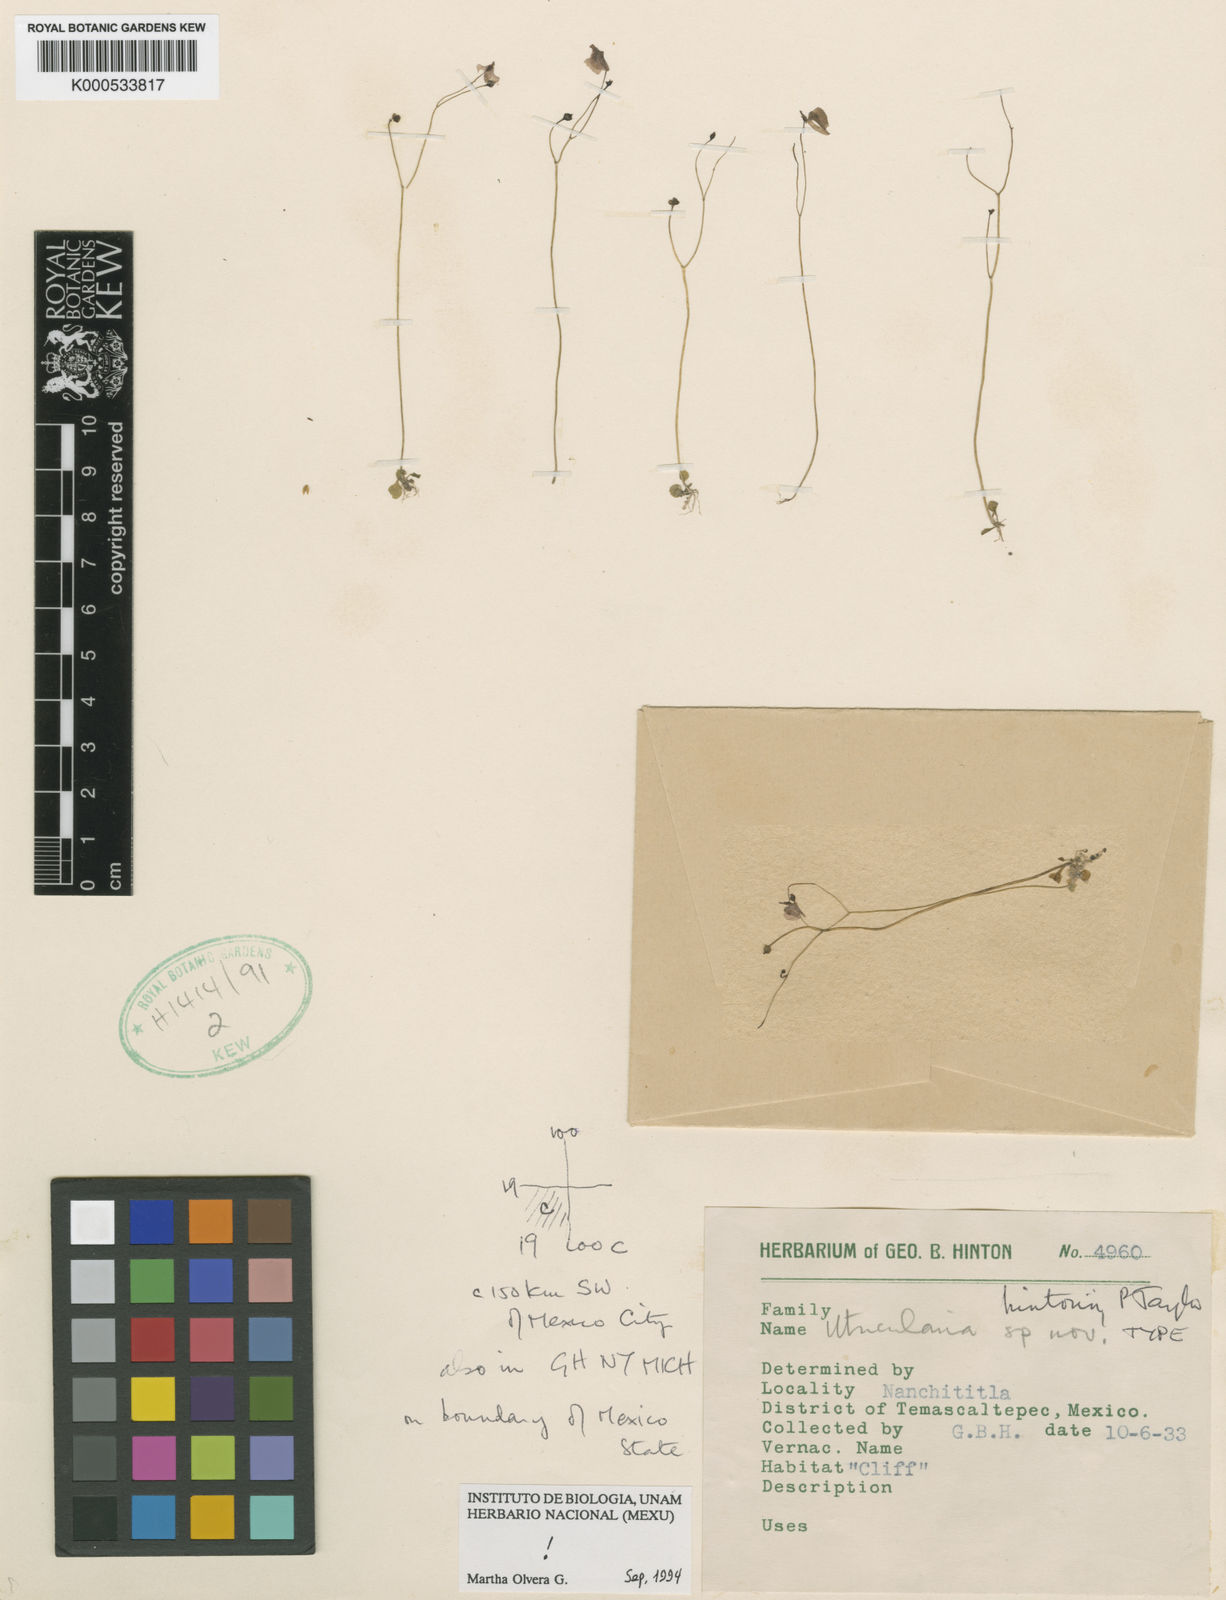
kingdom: Plantae
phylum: Tracheophyta
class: Magnoliopsida
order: Lamiales
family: Lentibulariaceae
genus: Utricularia
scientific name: Utricularia hintonii
